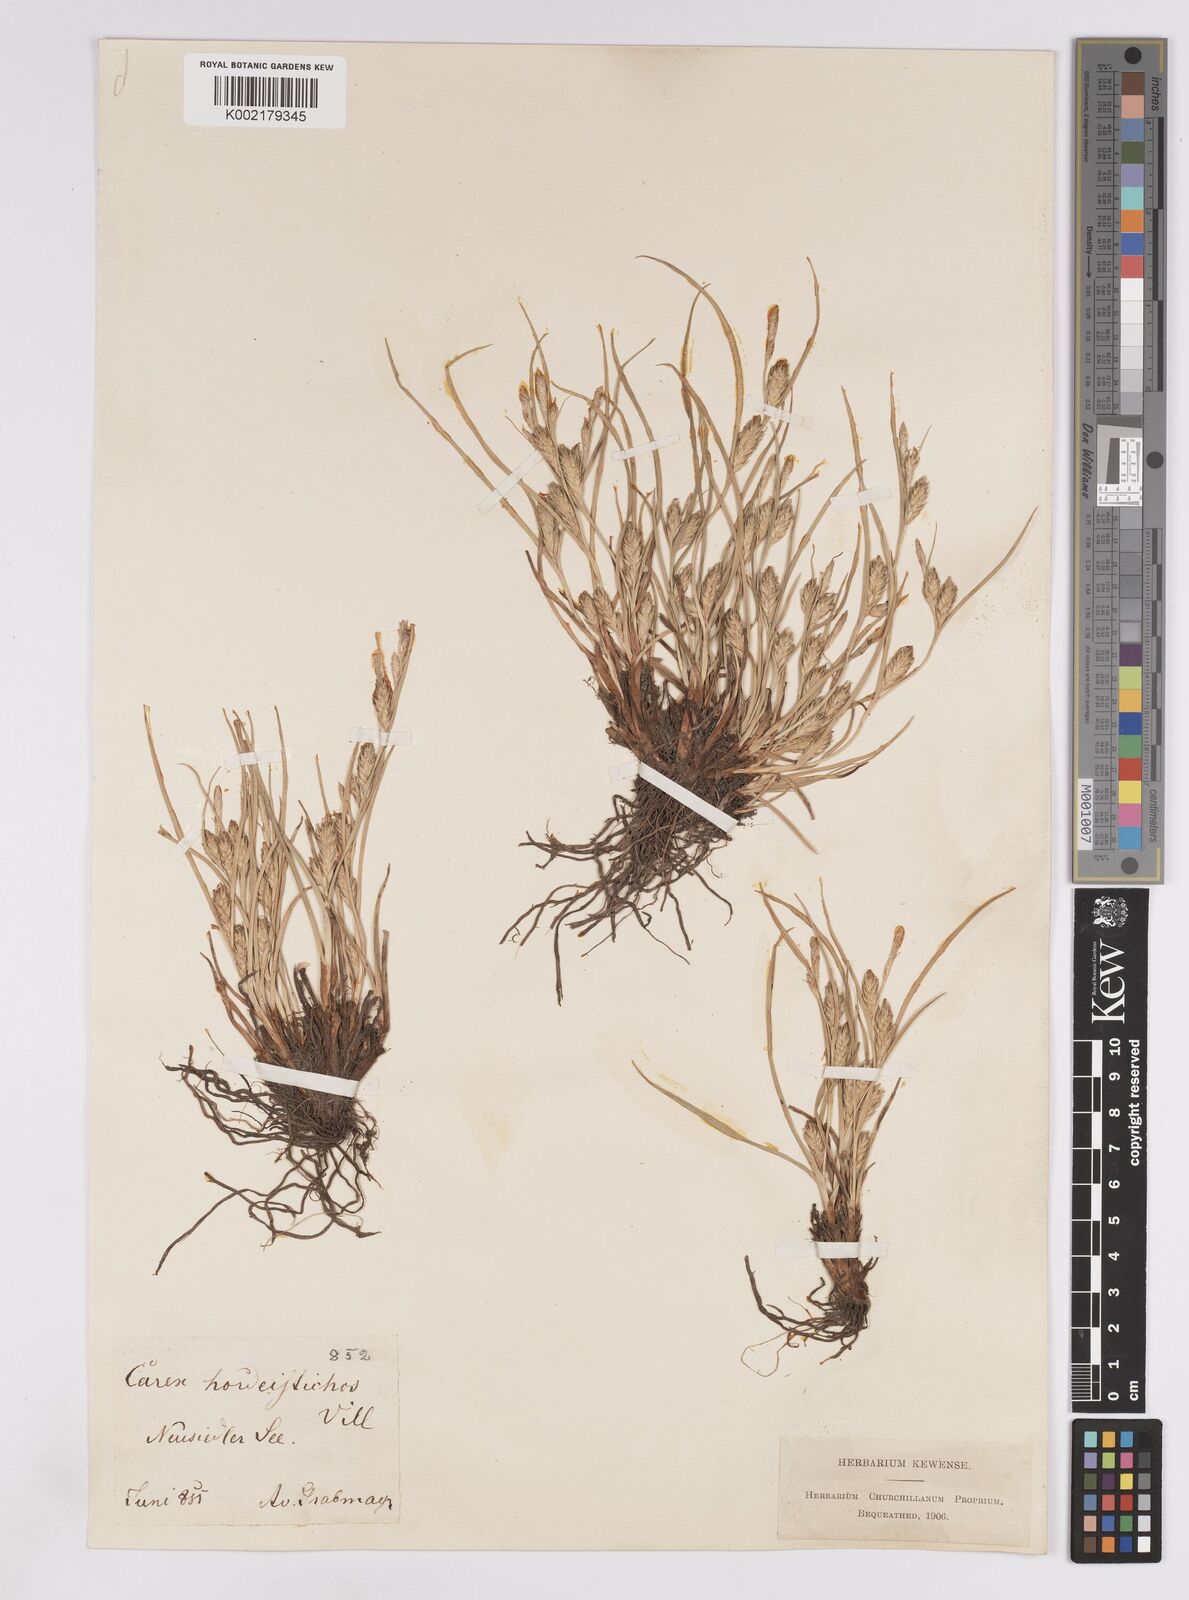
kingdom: Plantae
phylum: Tracheophyta
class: Liliopsida
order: Poales
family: Cyperaceae
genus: Carex
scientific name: Carex hordeistichos
